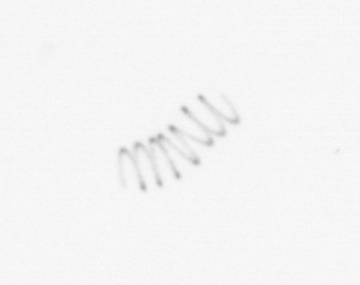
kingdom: Chromista
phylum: Ochrophyta
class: Bacillariophyceae
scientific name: Bacillariophyceae
